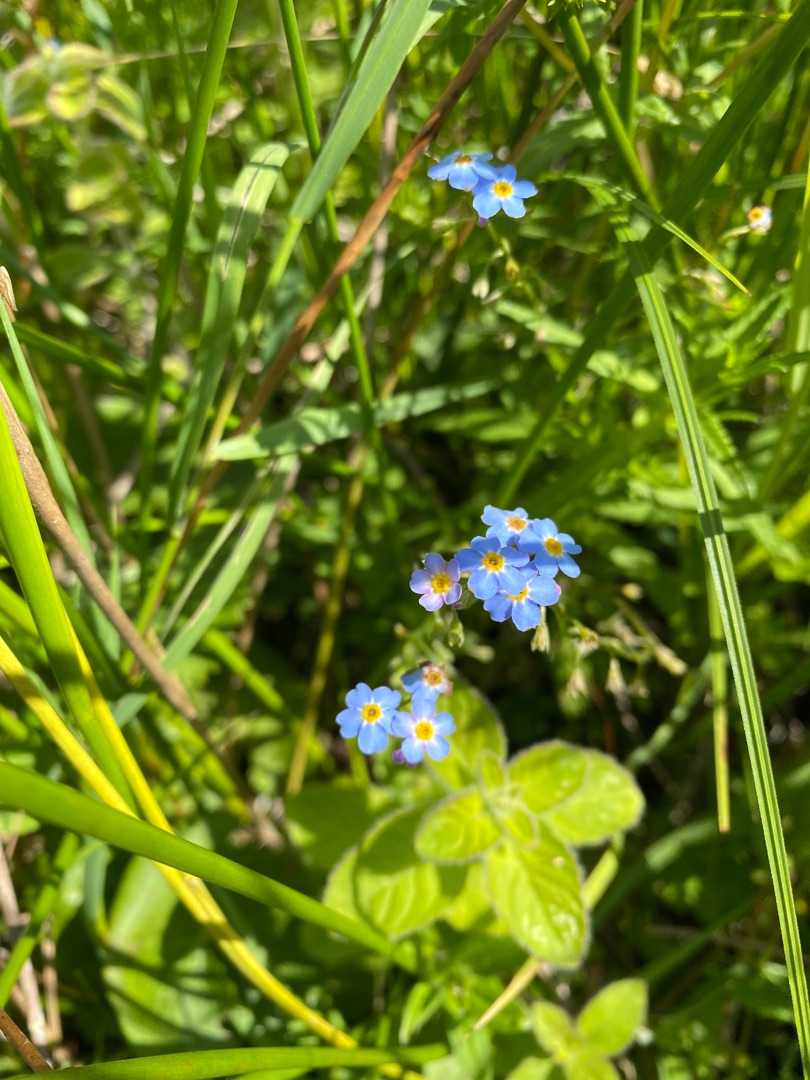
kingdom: Plantae
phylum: Tracheophyta
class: Magnoliopsida
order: Boraginales
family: Boraginaceae
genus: Myosotis
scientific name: Myosotis scorpioides
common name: Eng-forglemmigej
